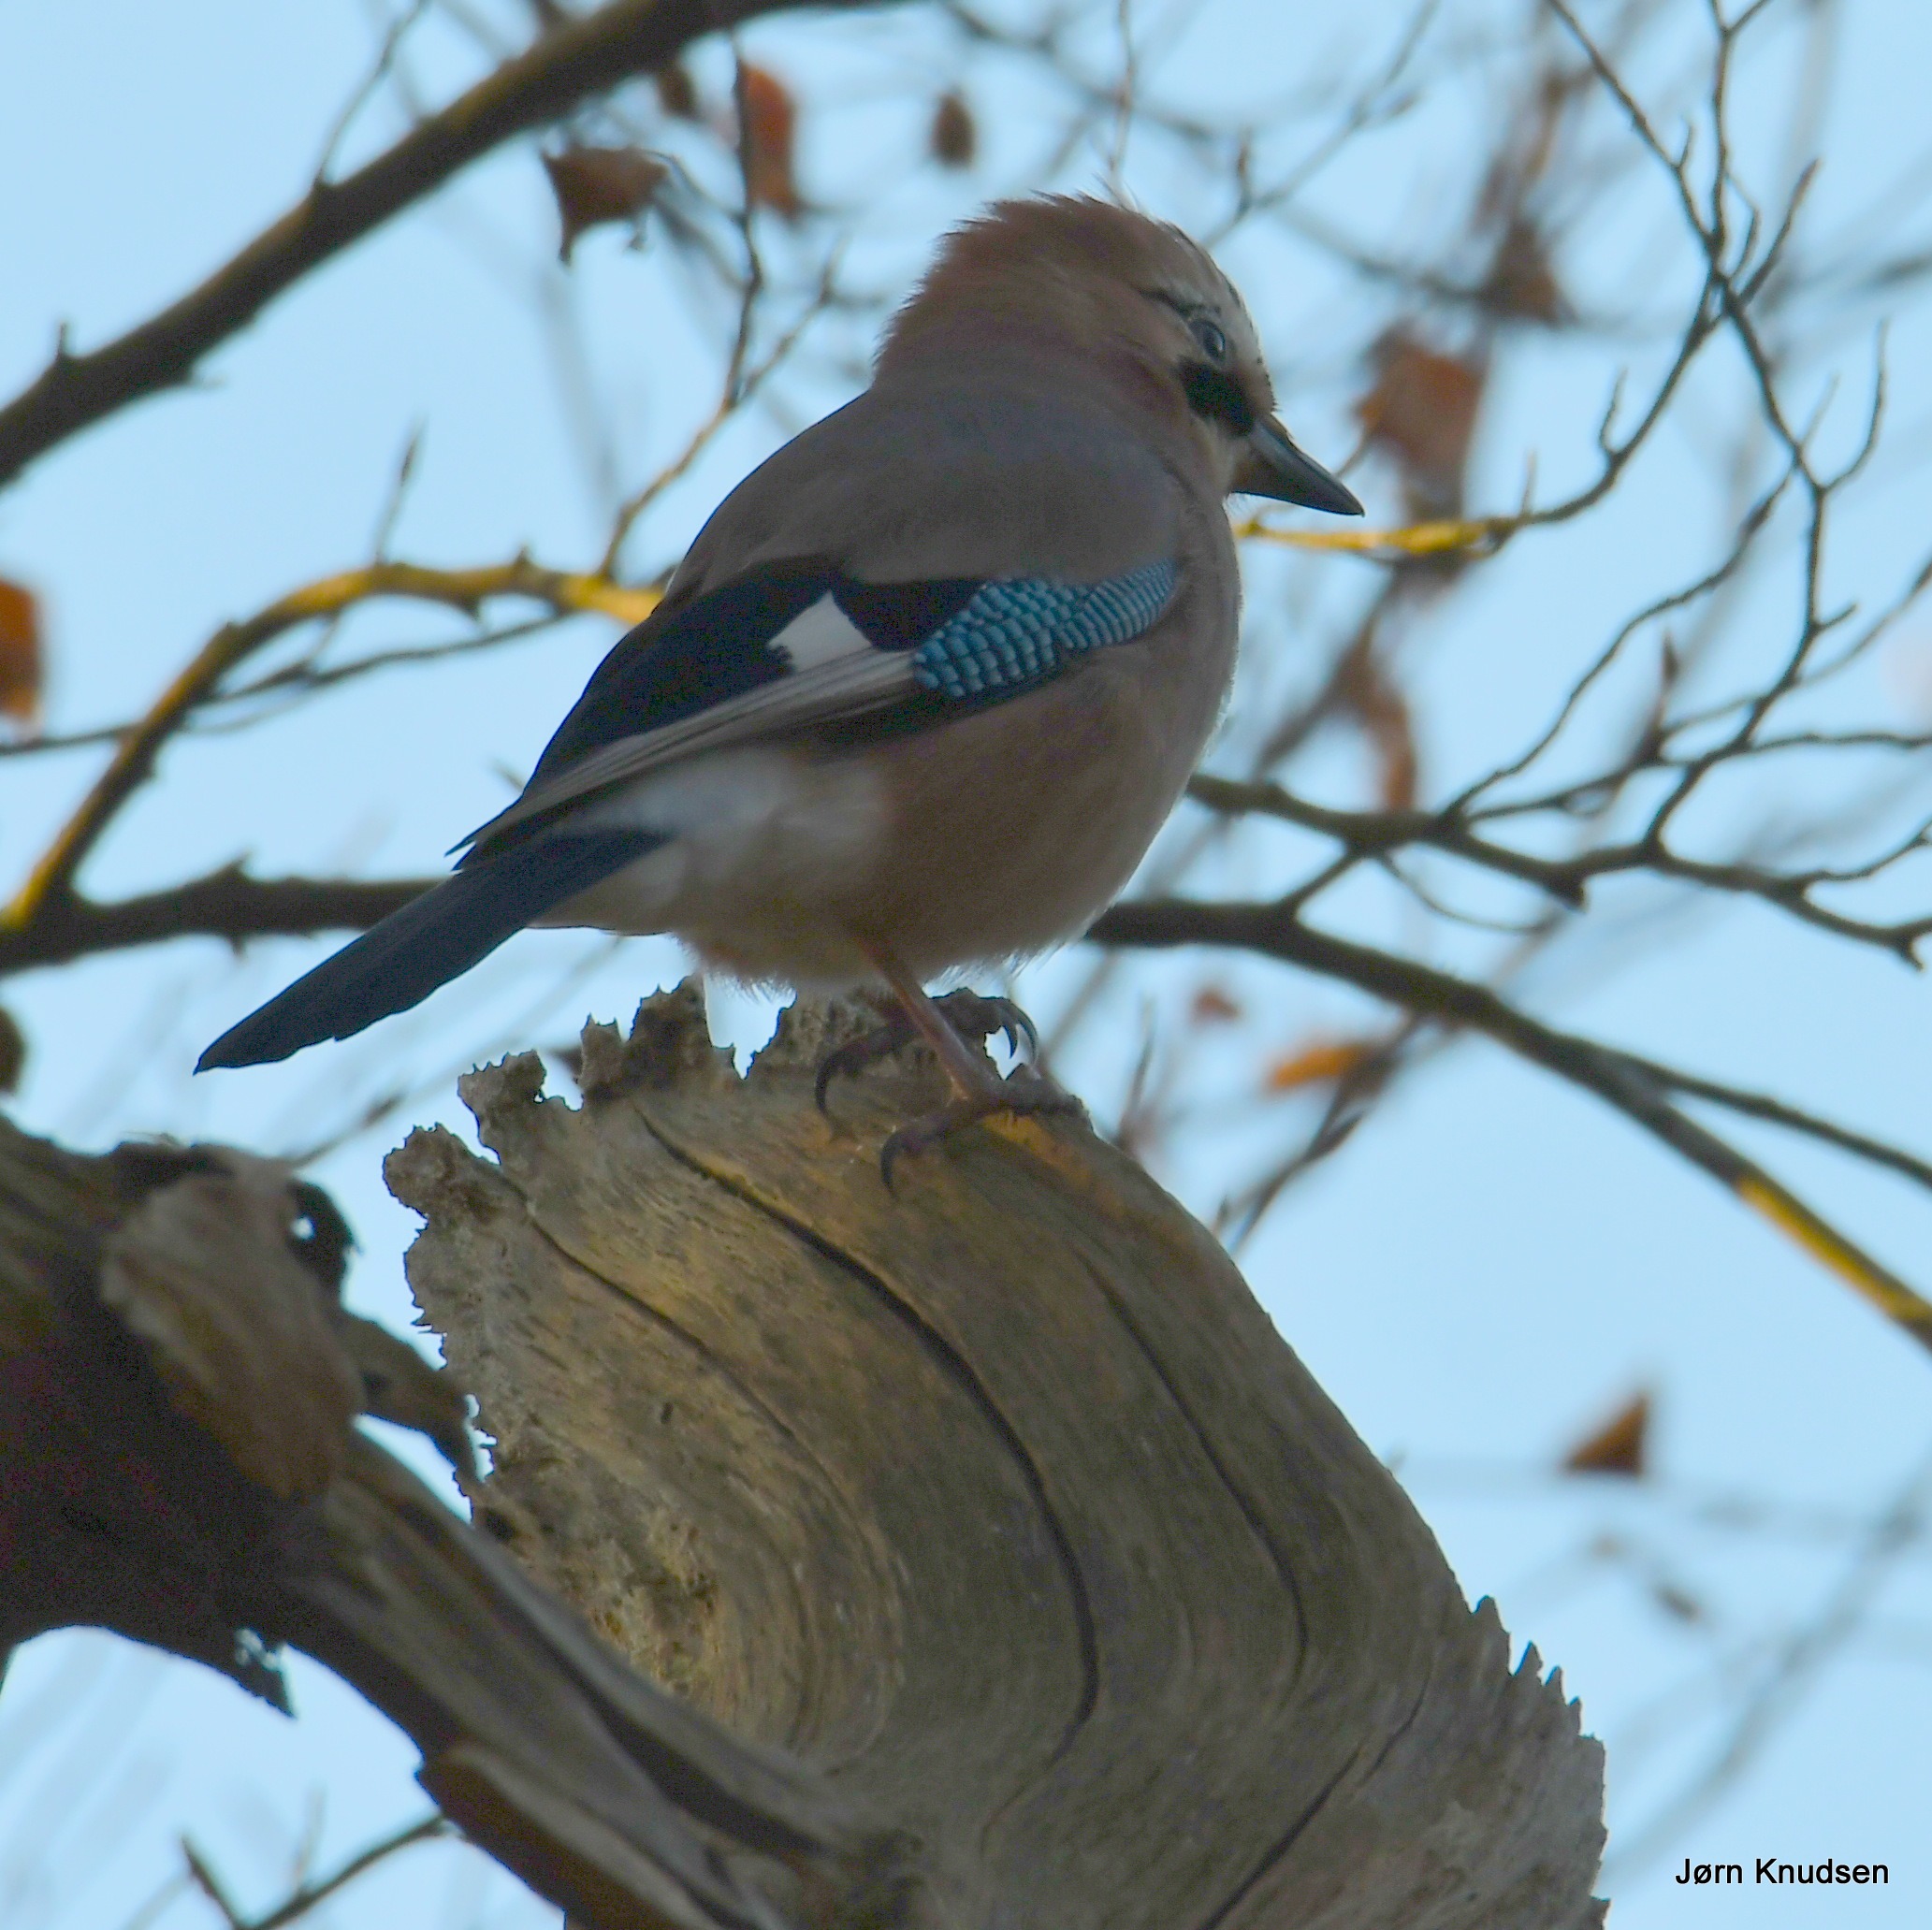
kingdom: Animalia
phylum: Chordata
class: Aves
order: Passeriformes
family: Corvidae
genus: Garrulus
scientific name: Garrulus glandarius
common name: Skovskade
